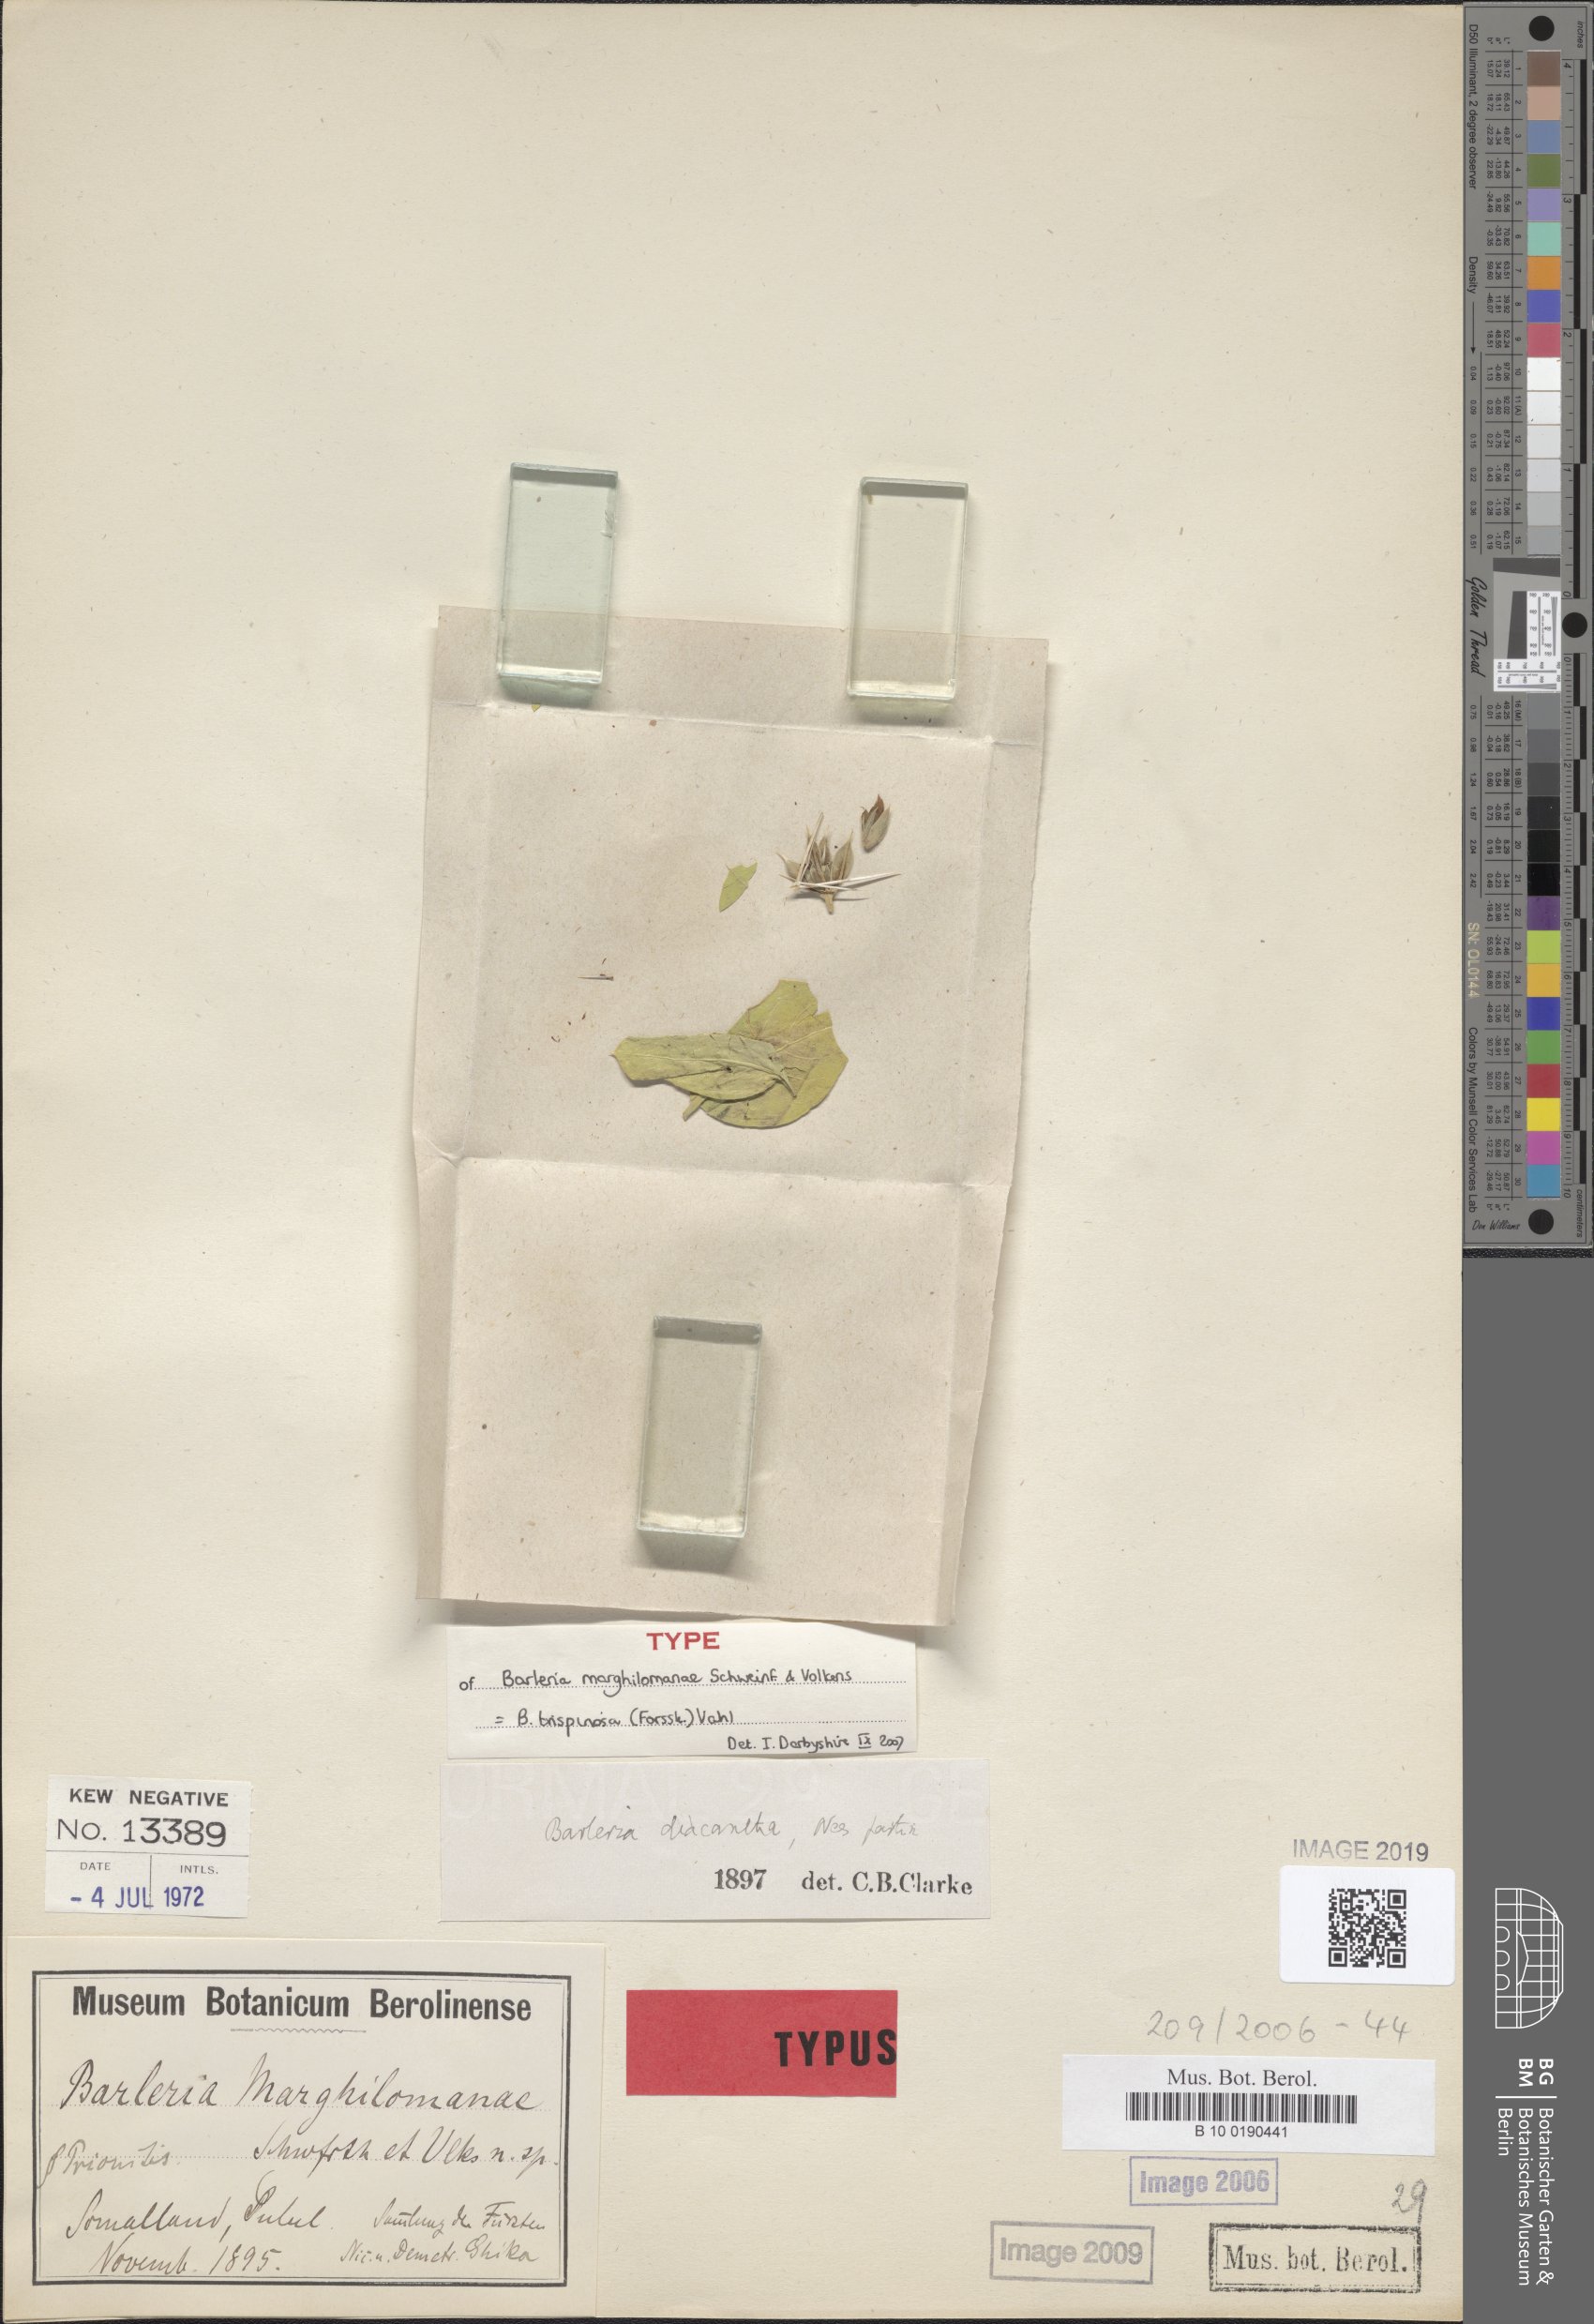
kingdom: Plantae
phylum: Tracheophyta
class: Magnoliopsida
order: Lamiales
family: Acanthaceae
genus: Barleria
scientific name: Barleria trispinosa
